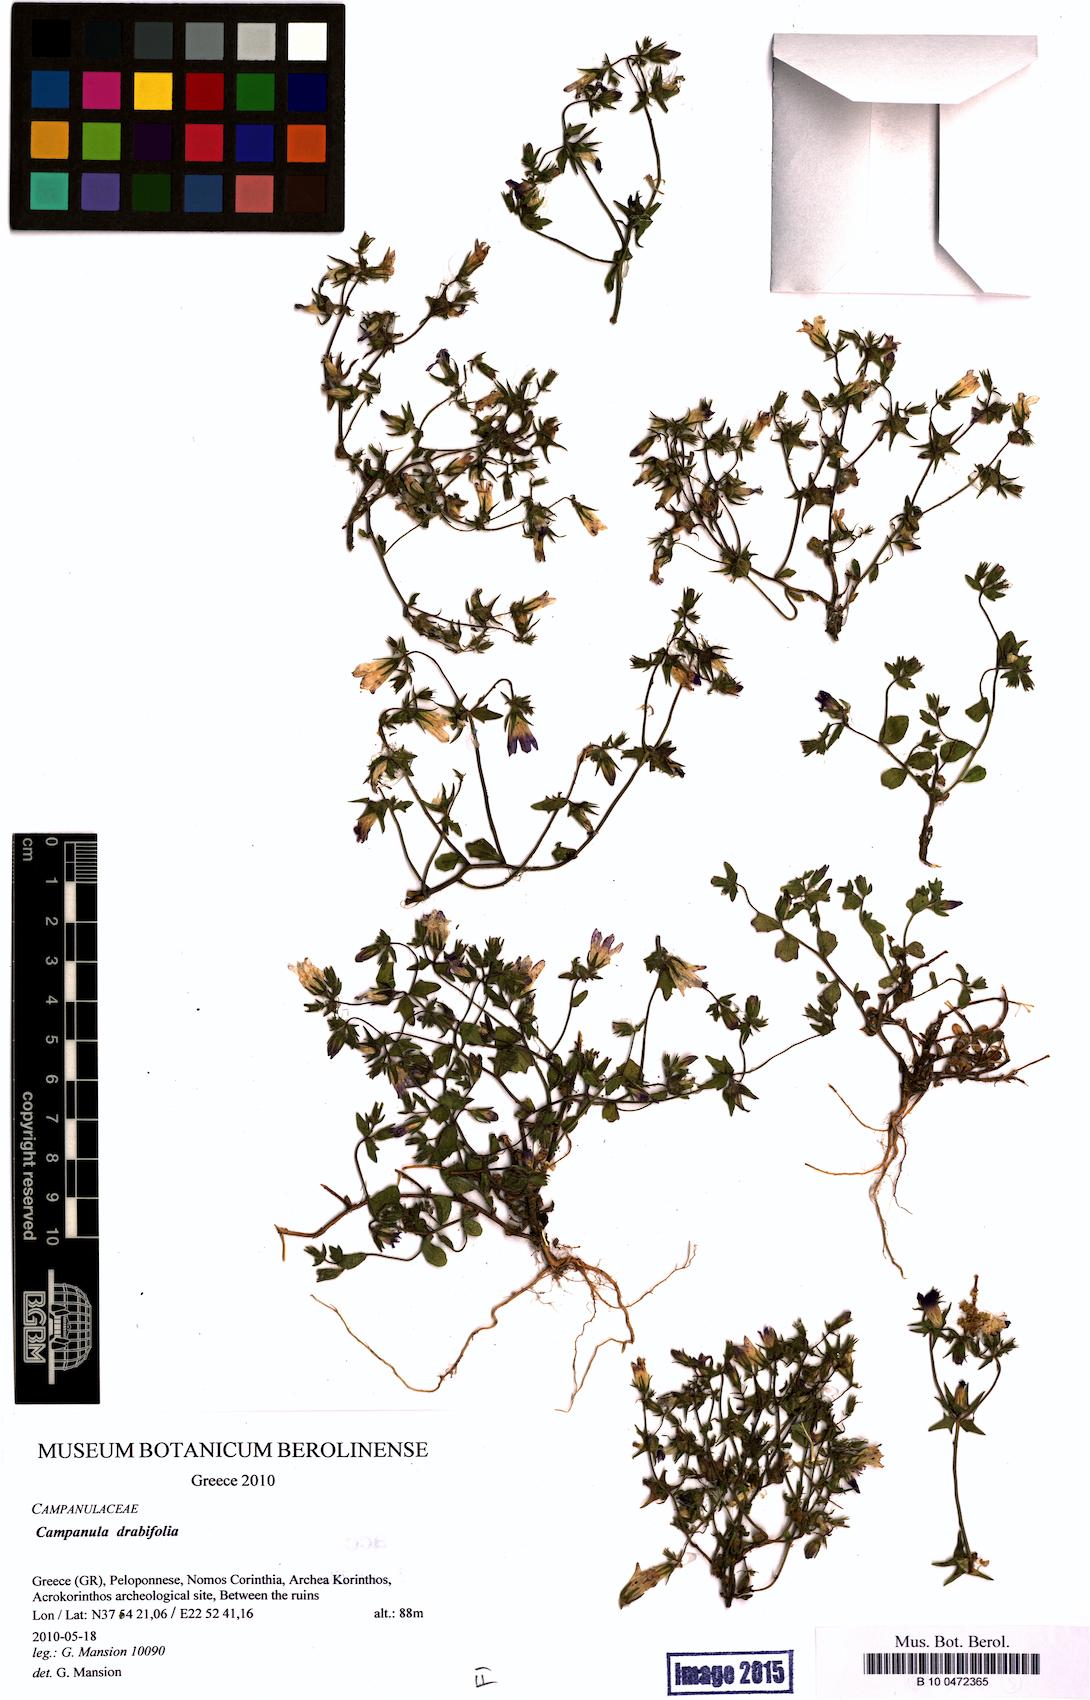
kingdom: Plantae
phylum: Tracheophyta
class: Magnoliopsida
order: Asterales
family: Campanulaceae
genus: Campanula
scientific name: Campanula drabifolia
